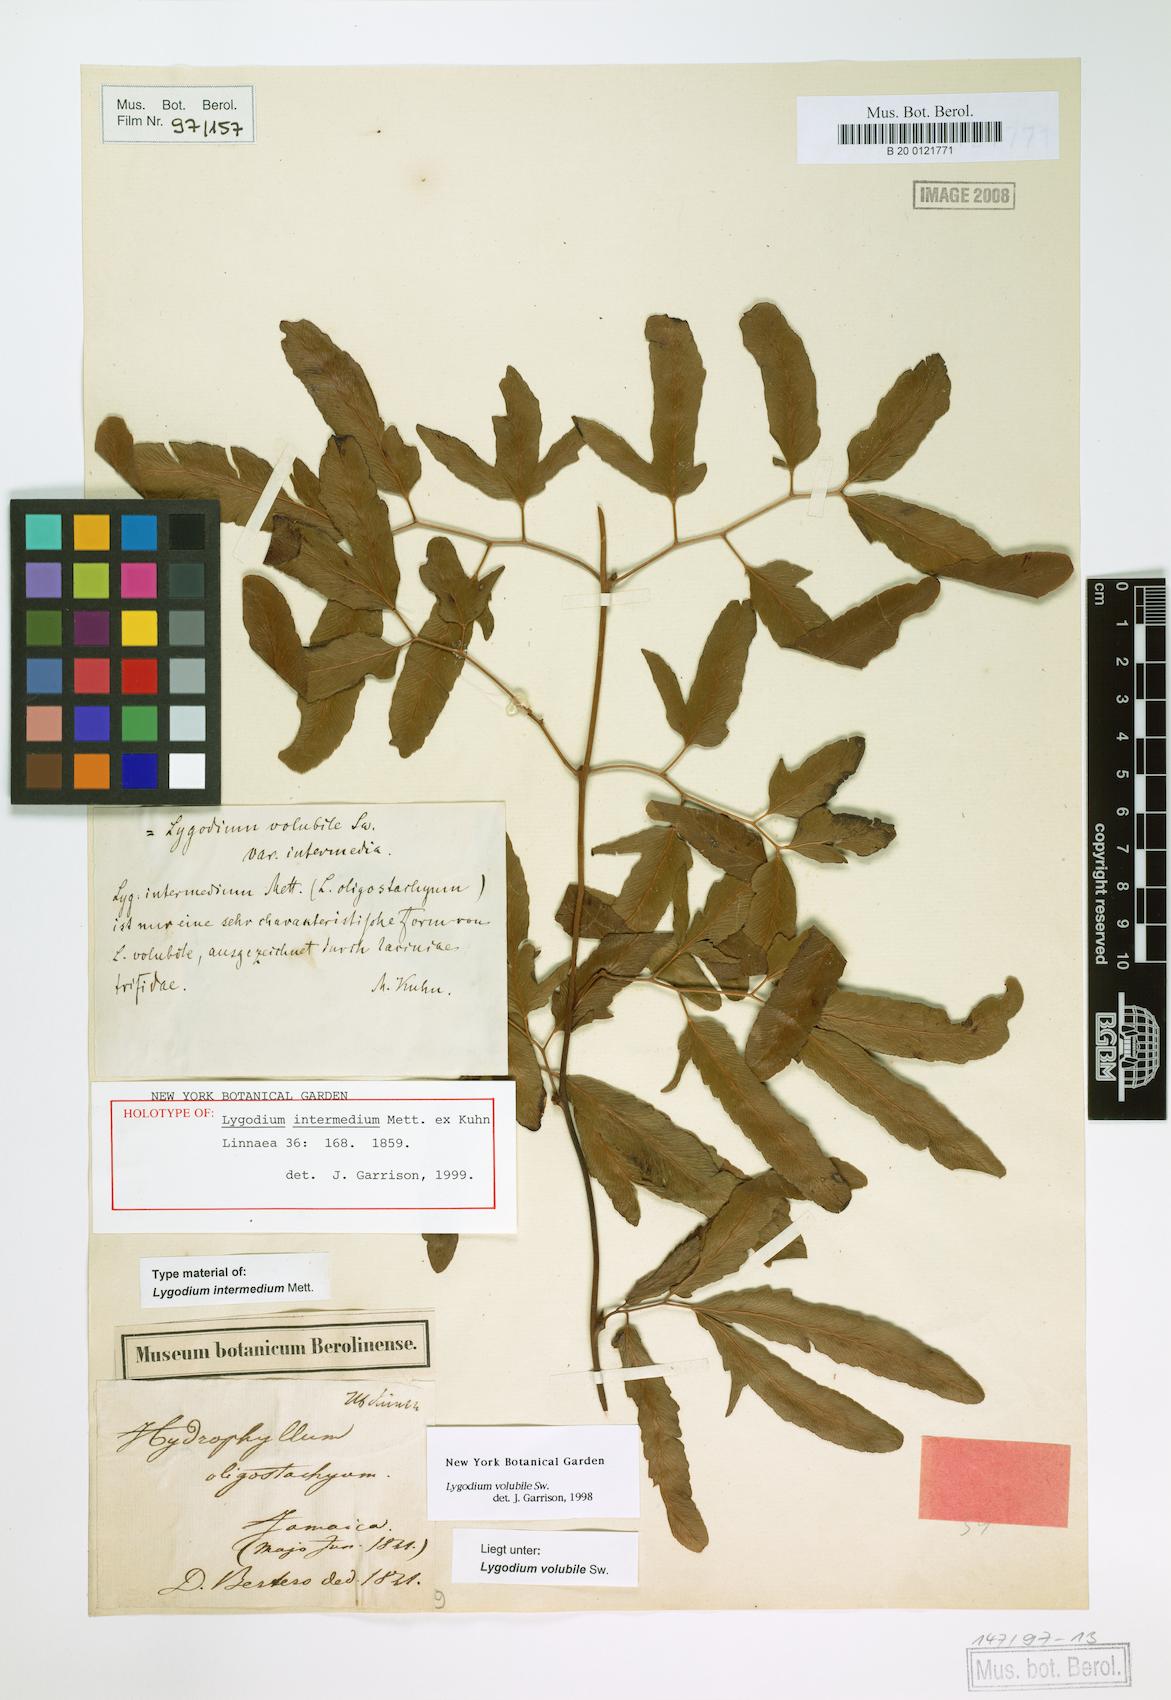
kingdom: Plantae
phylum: Tracheophyta
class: Polypodiopsida
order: Schizaeales
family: Lygodiaceae
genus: Lygodium
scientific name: Lygodium volubile
